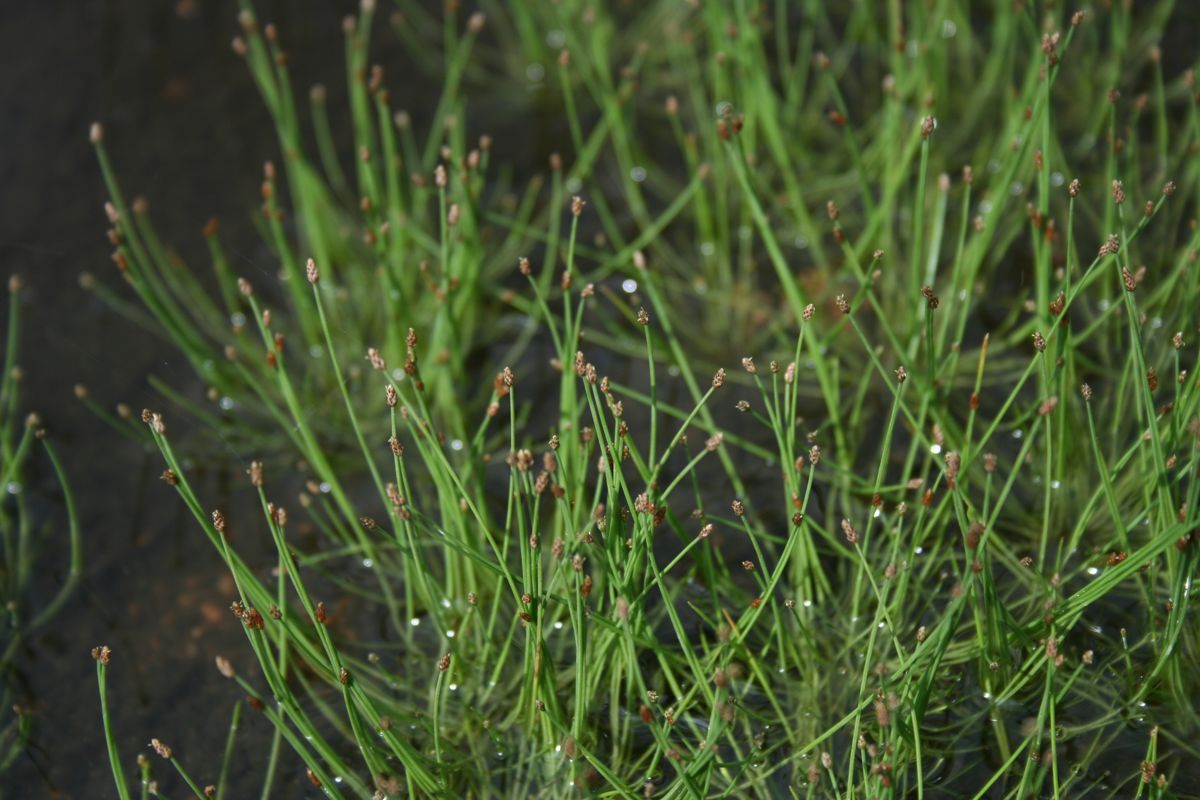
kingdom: Plantae
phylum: Tracheophyta
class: Liliopsida
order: Poales
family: Cyperaceae
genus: Eleocharis
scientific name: Eleocharis retroflexa
